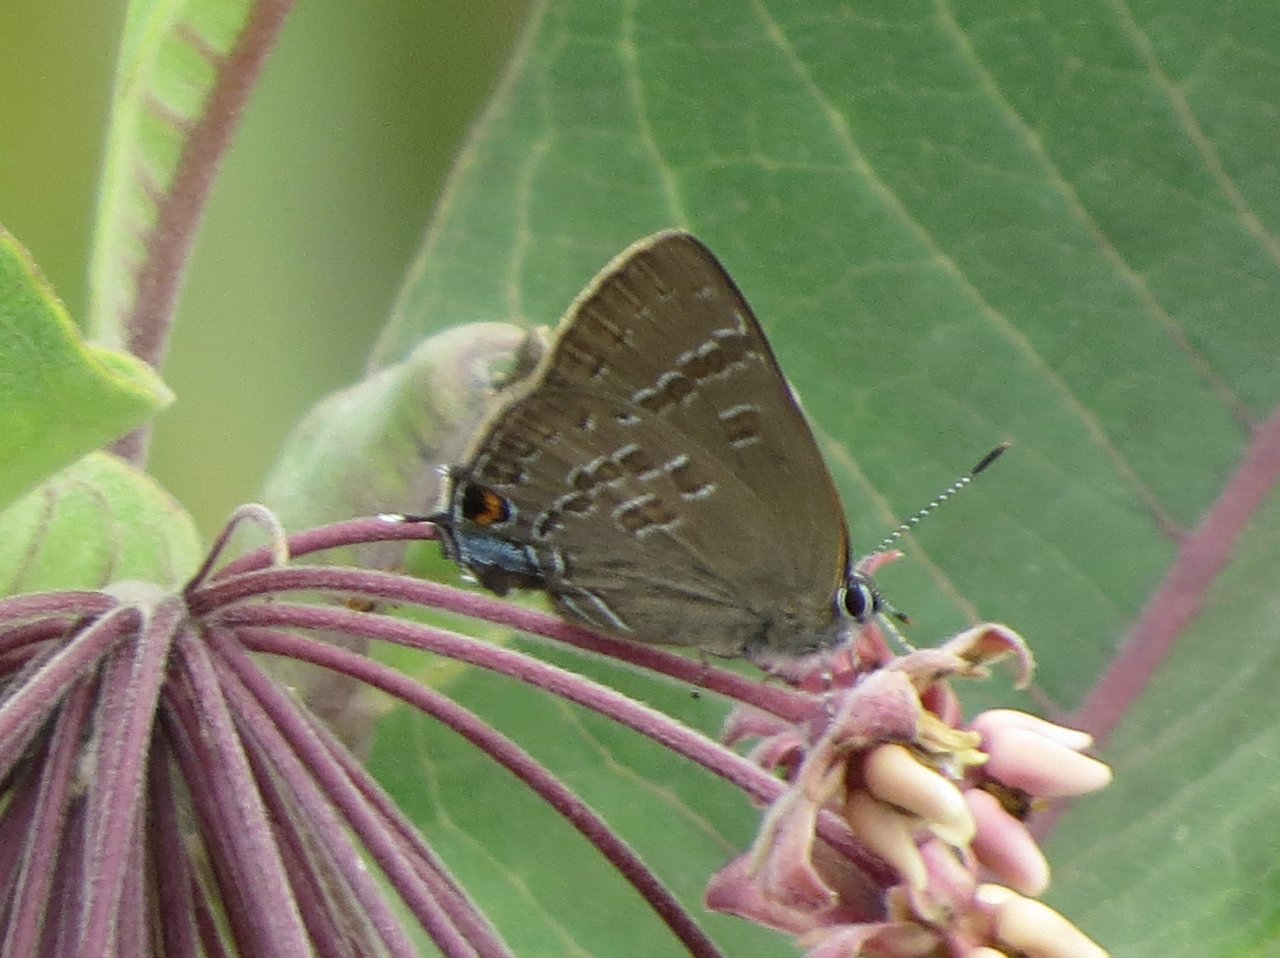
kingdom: Animalia
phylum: Arthropoda
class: Insecta
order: Lepidoptera
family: Lycaenidae
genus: Strymon
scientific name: Strymon caryaevorus
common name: Hickory Hairstreak
